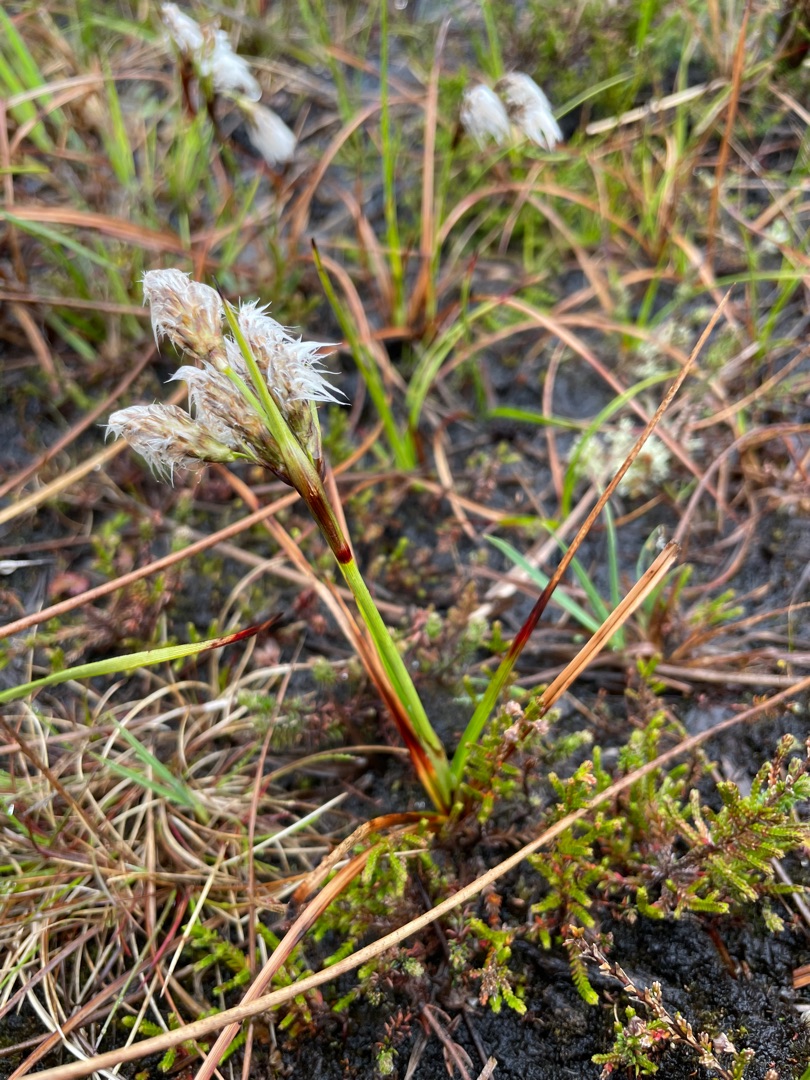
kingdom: Plantae
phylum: Tracheophyta
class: Liliopsida
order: Poales
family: Cyperaceae
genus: Eriophorum
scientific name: Eriophorum angustifolium
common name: Smalbladet kæruld
